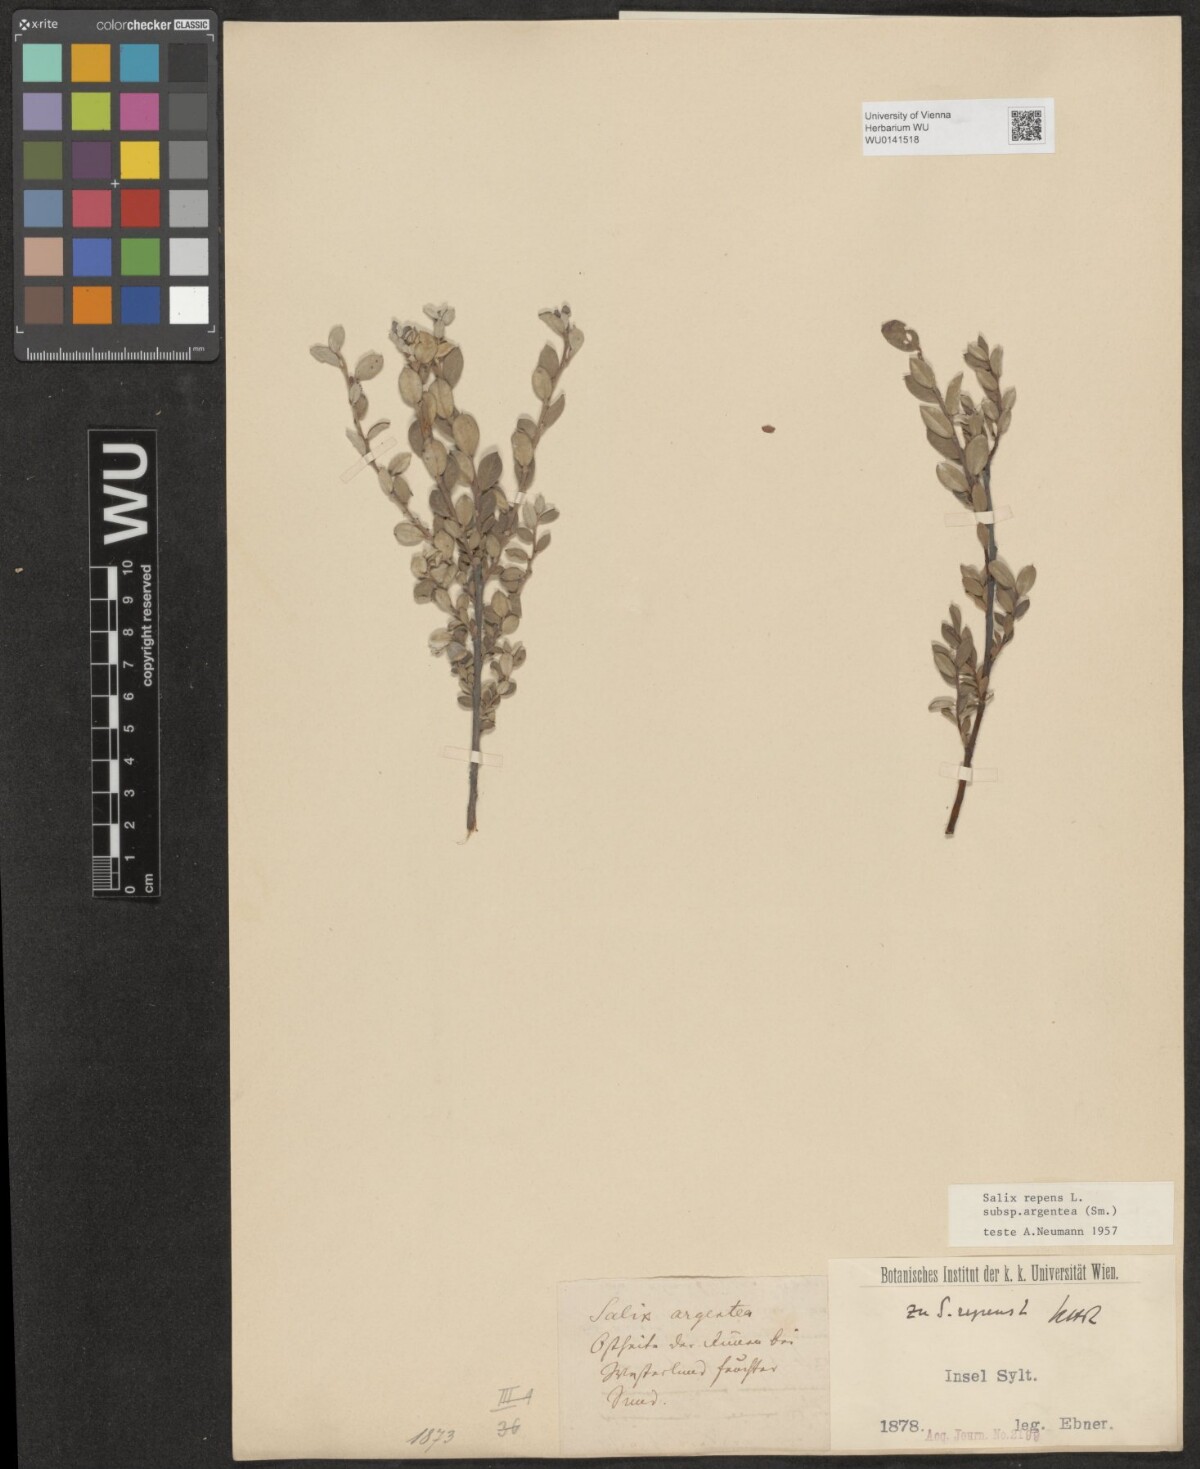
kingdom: Plantae
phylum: Tracheophyta
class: Magnoliopsida
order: Malpighiales
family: Salicaceae
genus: Salix
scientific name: Salix repens
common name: Creeping willow
